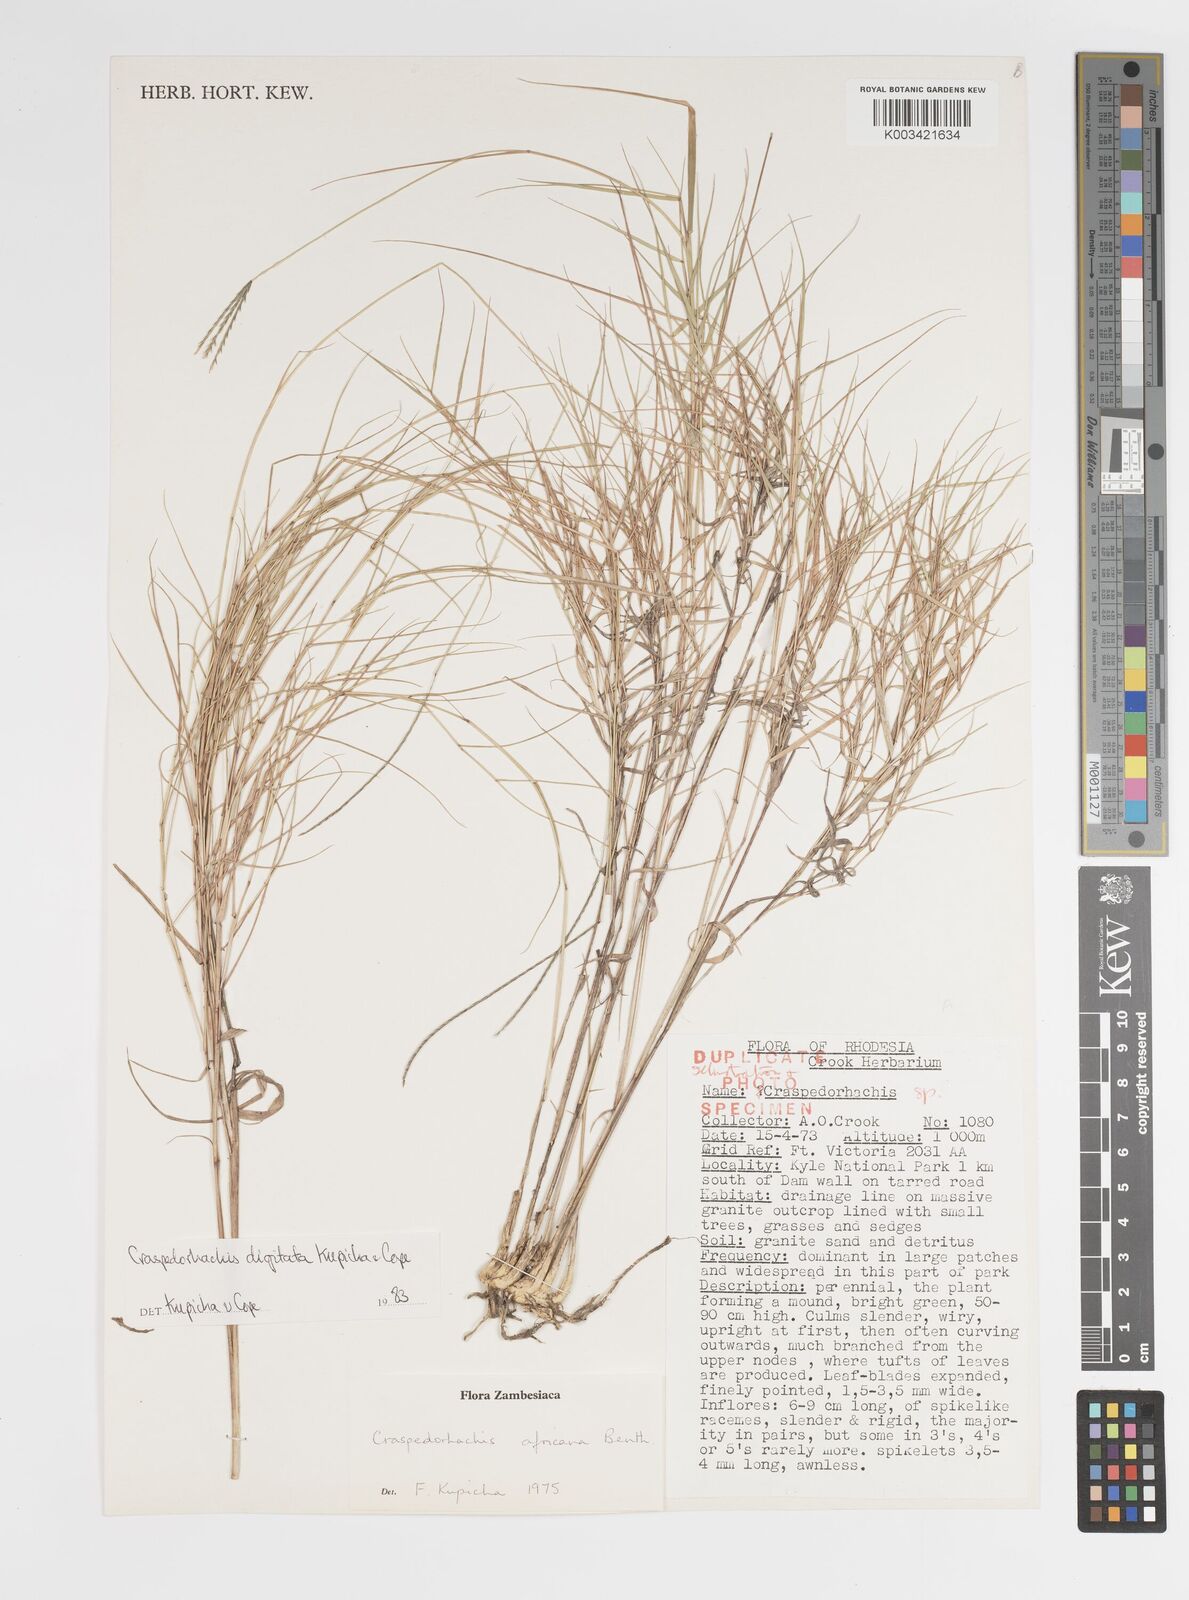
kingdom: Plantae
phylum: Tracheophyta
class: Liliopsida
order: Poales
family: Poaceae
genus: Craspedorhachis
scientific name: Craspedorhachis digitata
